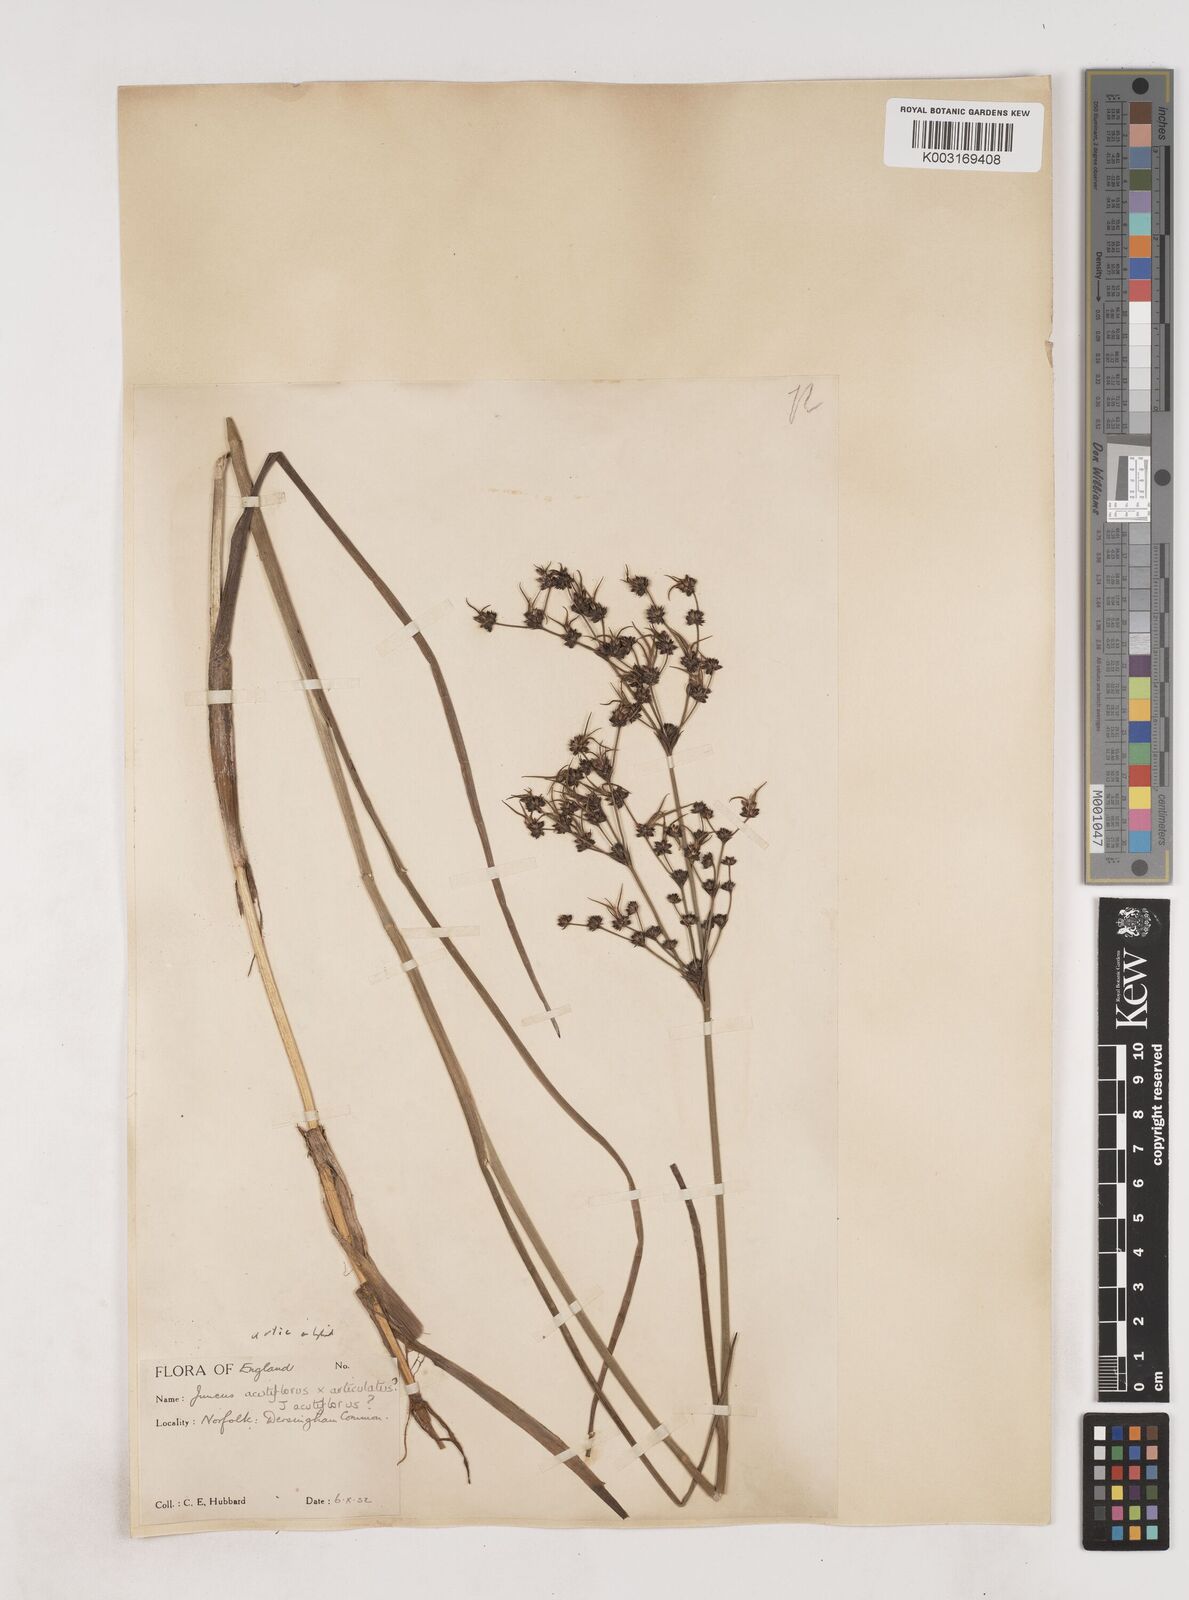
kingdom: Plantae
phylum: Tracheophyta
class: Liliopsida
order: Poales
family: Juncaceae
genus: Juncus
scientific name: Juncus
